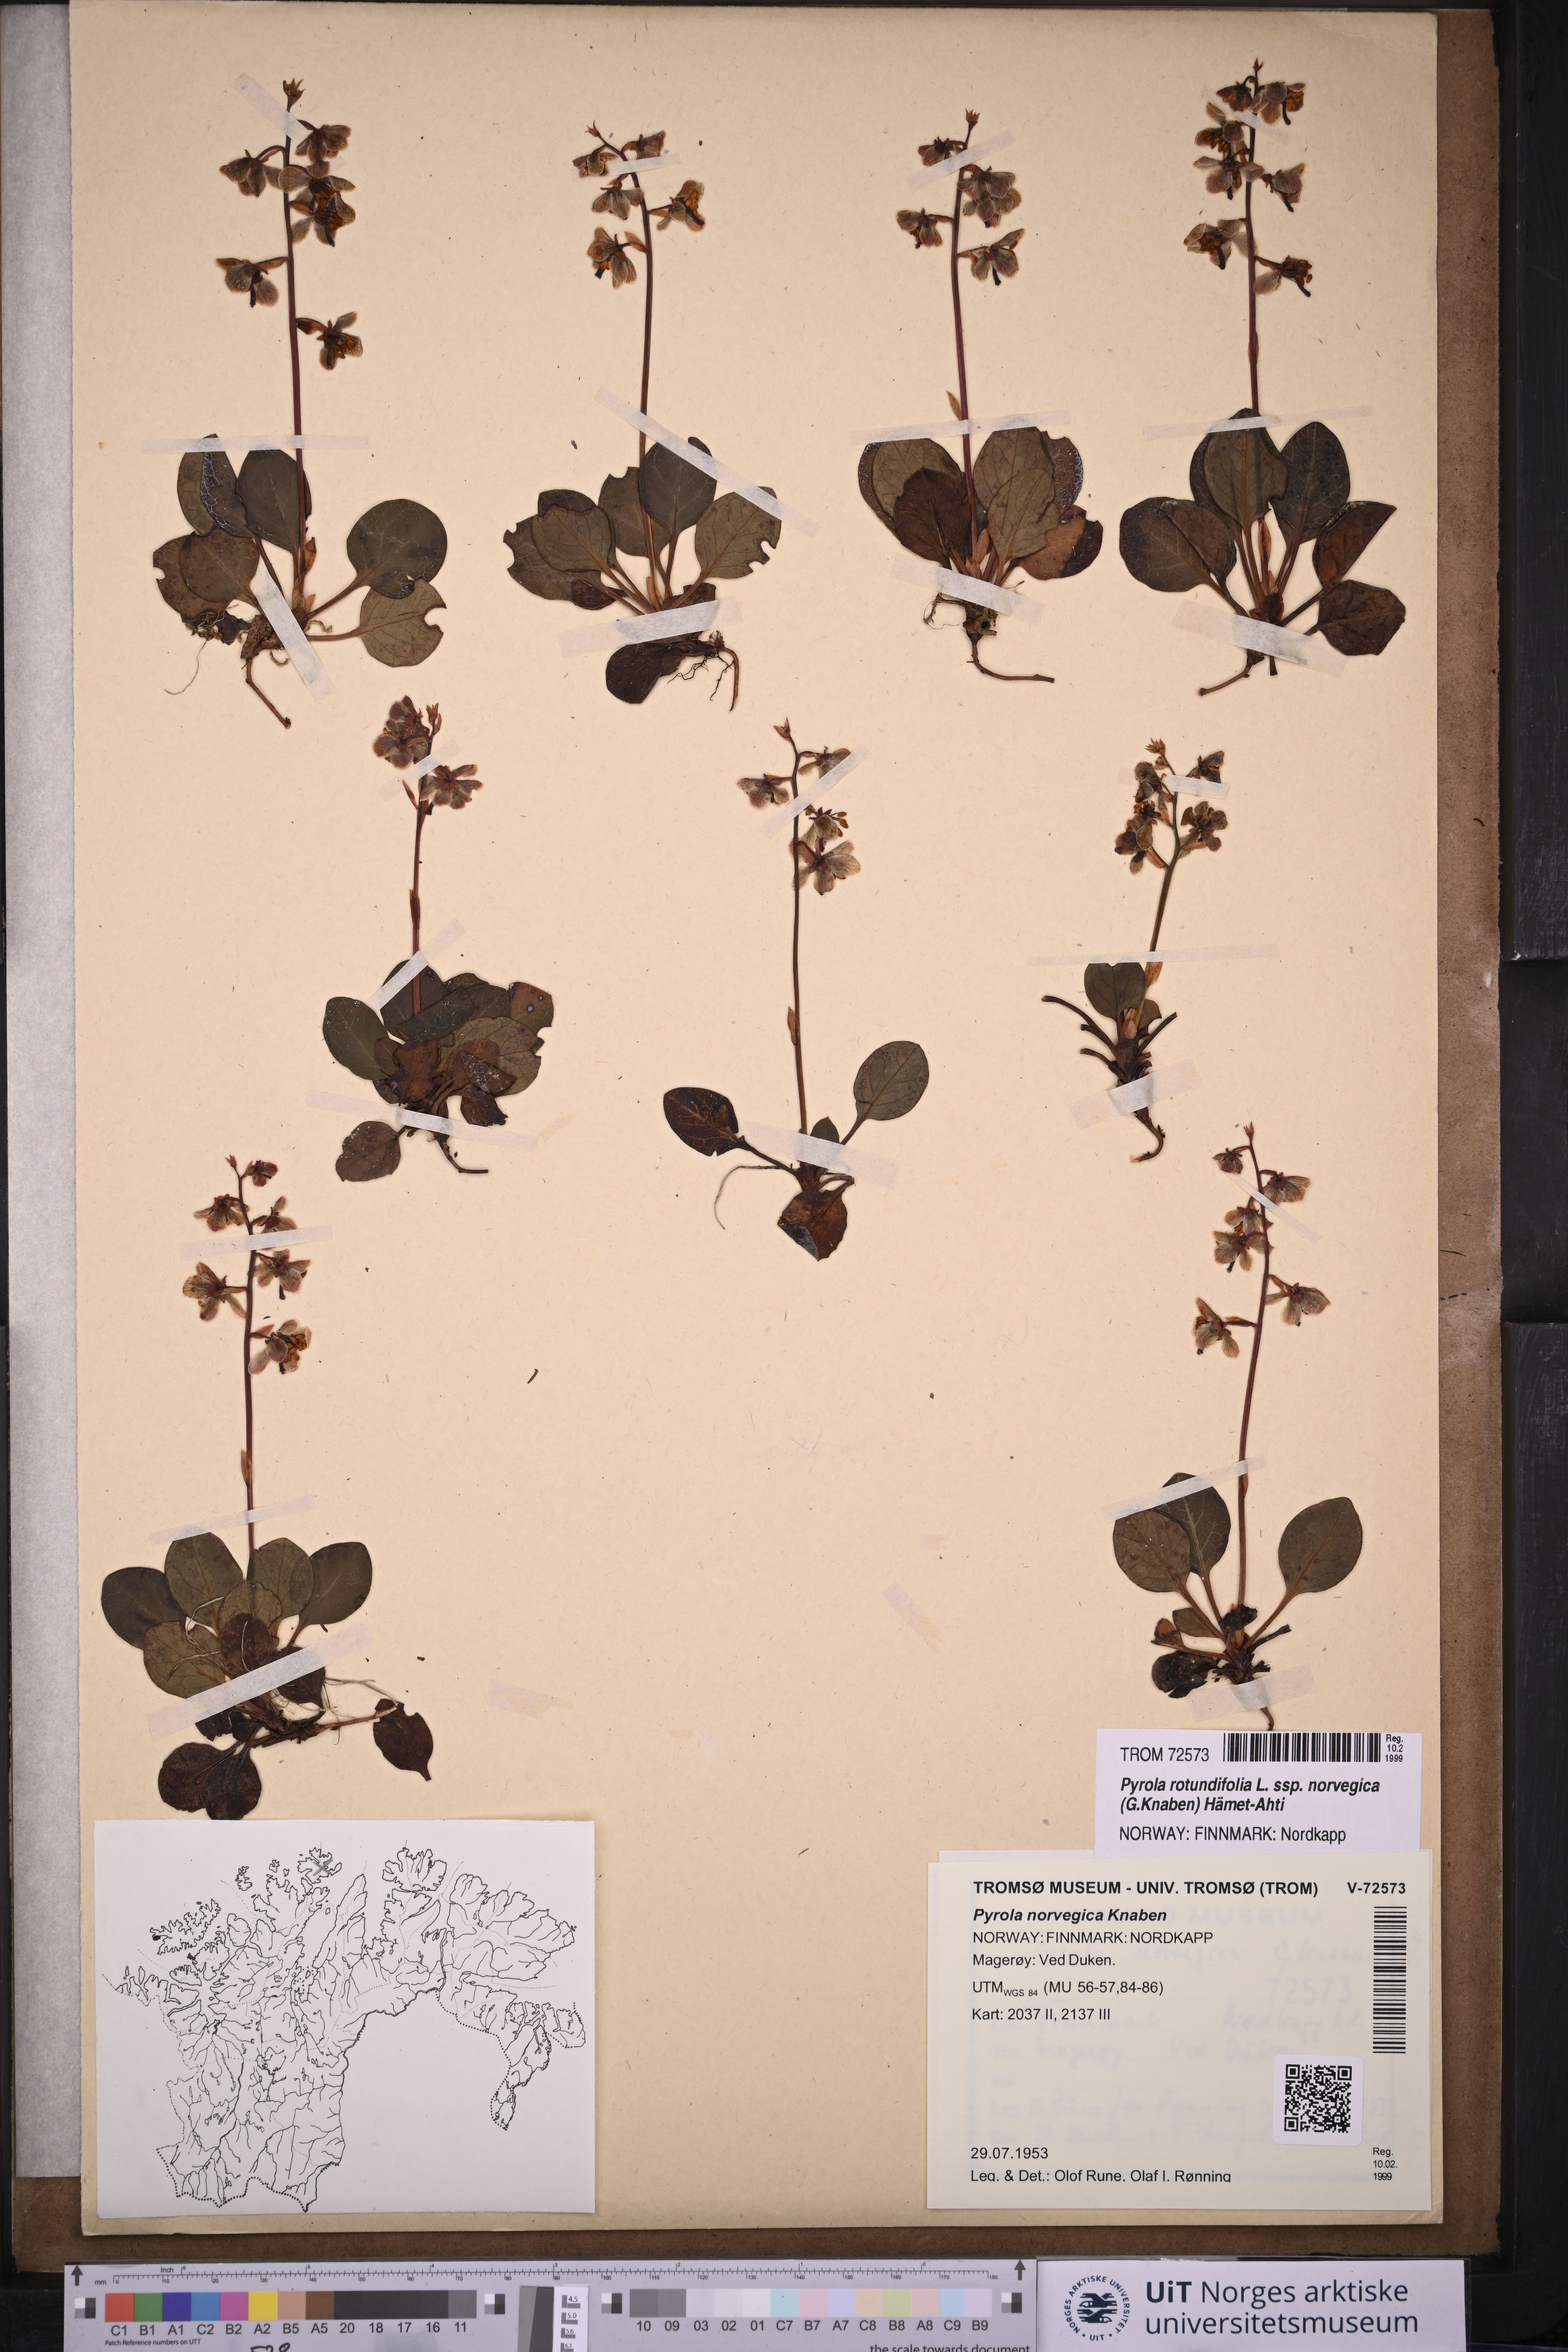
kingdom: Plantae
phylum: Tracheophyta
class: Magnoliopsida
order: Ericales
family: Ericaceae
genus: Pyrola
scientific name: Pyrola rotundifolia
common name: Round-leaved wintergreen
